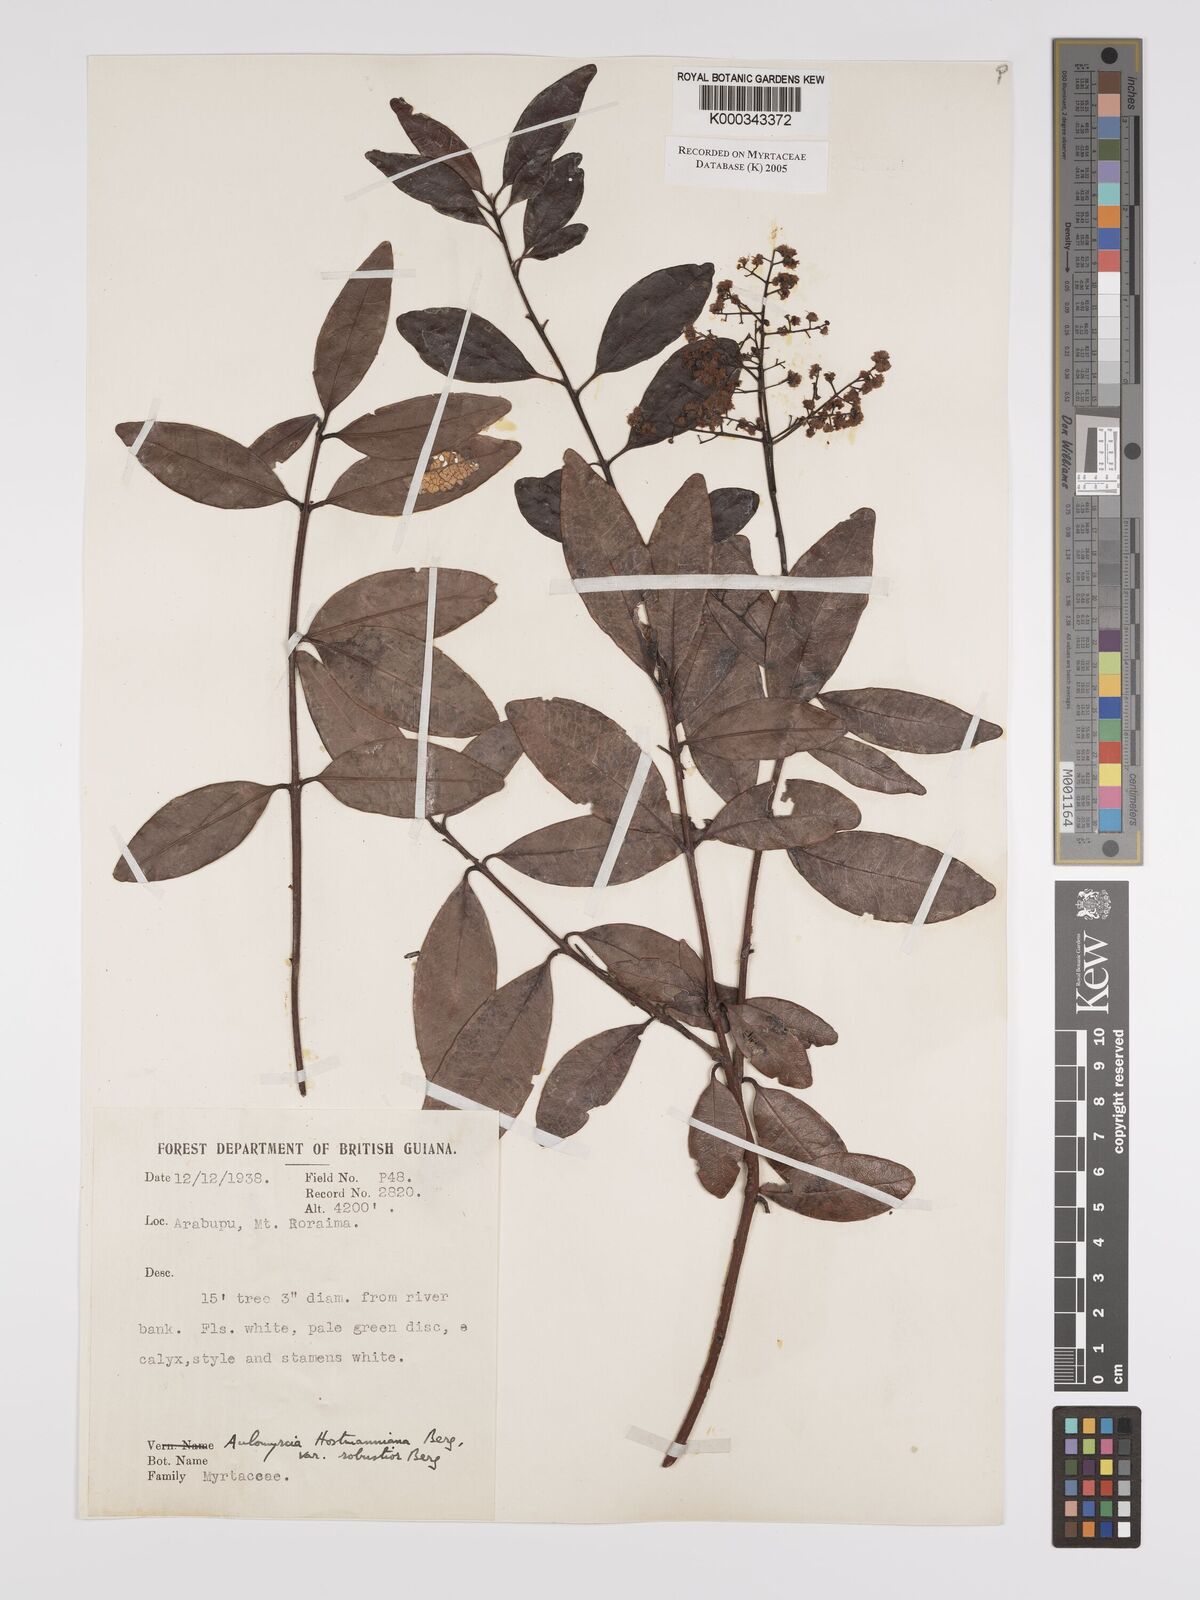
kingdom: Plantae
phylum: Tracheophyta
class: Magnoliopsida
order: Myrtales
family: Myrtaceae
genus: Myrcia
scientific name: Myrcia amazonica
